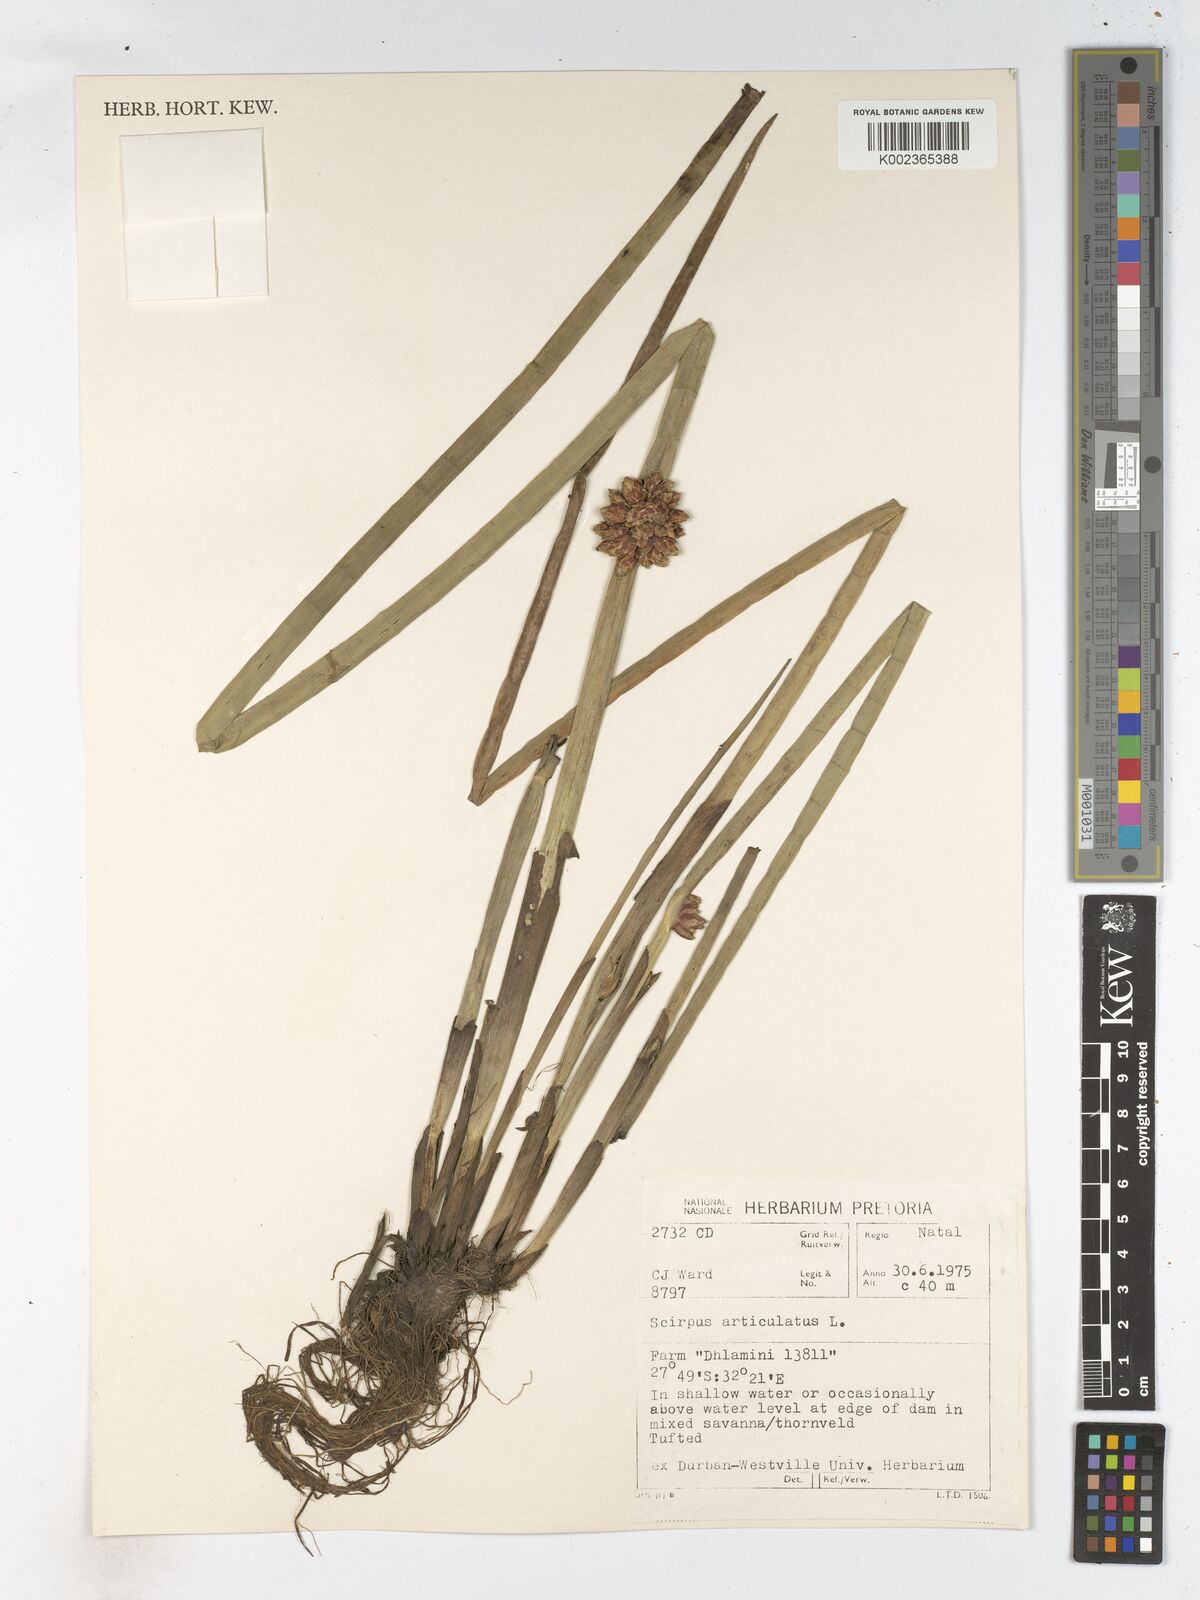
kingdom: Plantae
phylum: Tracheophyta
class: Liliopsida
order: Poales
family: Cyperaceae
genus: Schoenoplectiella
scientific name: Schoenoplectiella articulata
